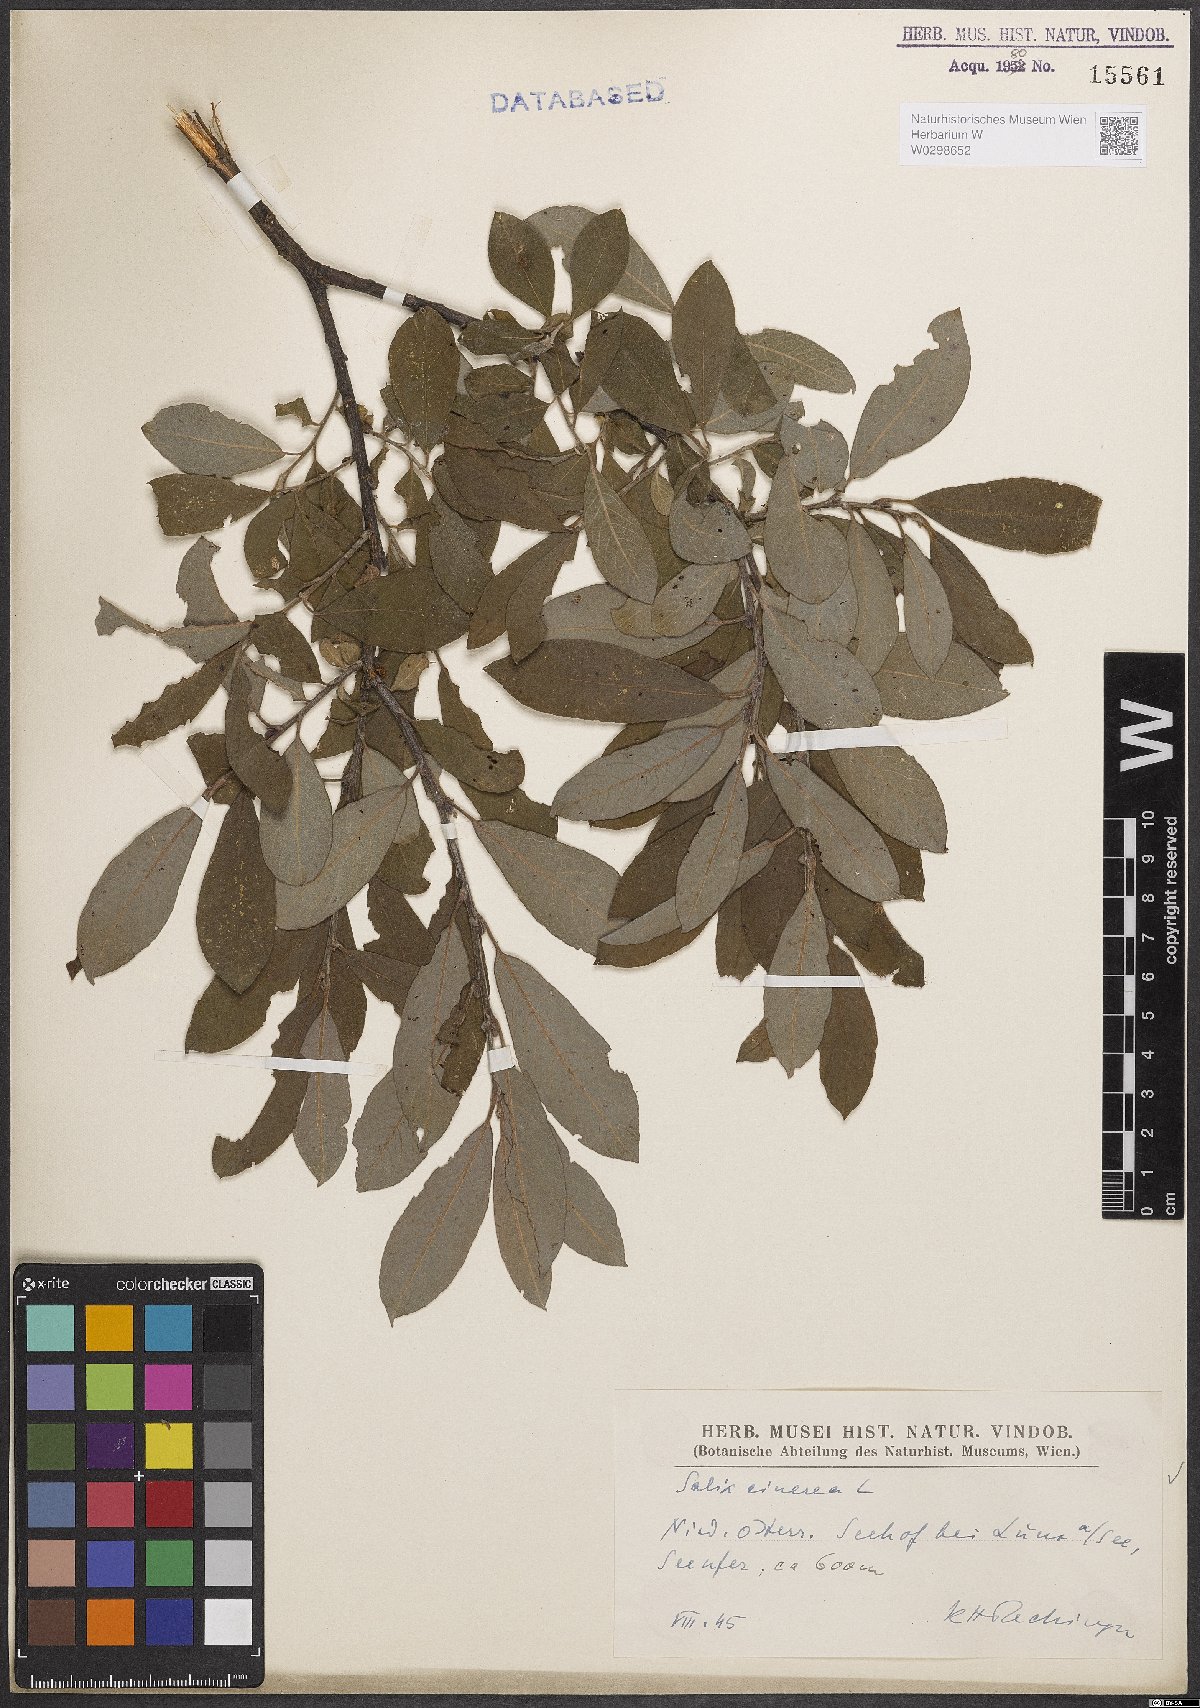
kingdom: Plantae
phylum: Tracheophyta
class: Magnoliopsida
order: Malpighiales
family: Salicaceae
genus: Salix
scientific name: Salix cinerea
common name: Common sallow
